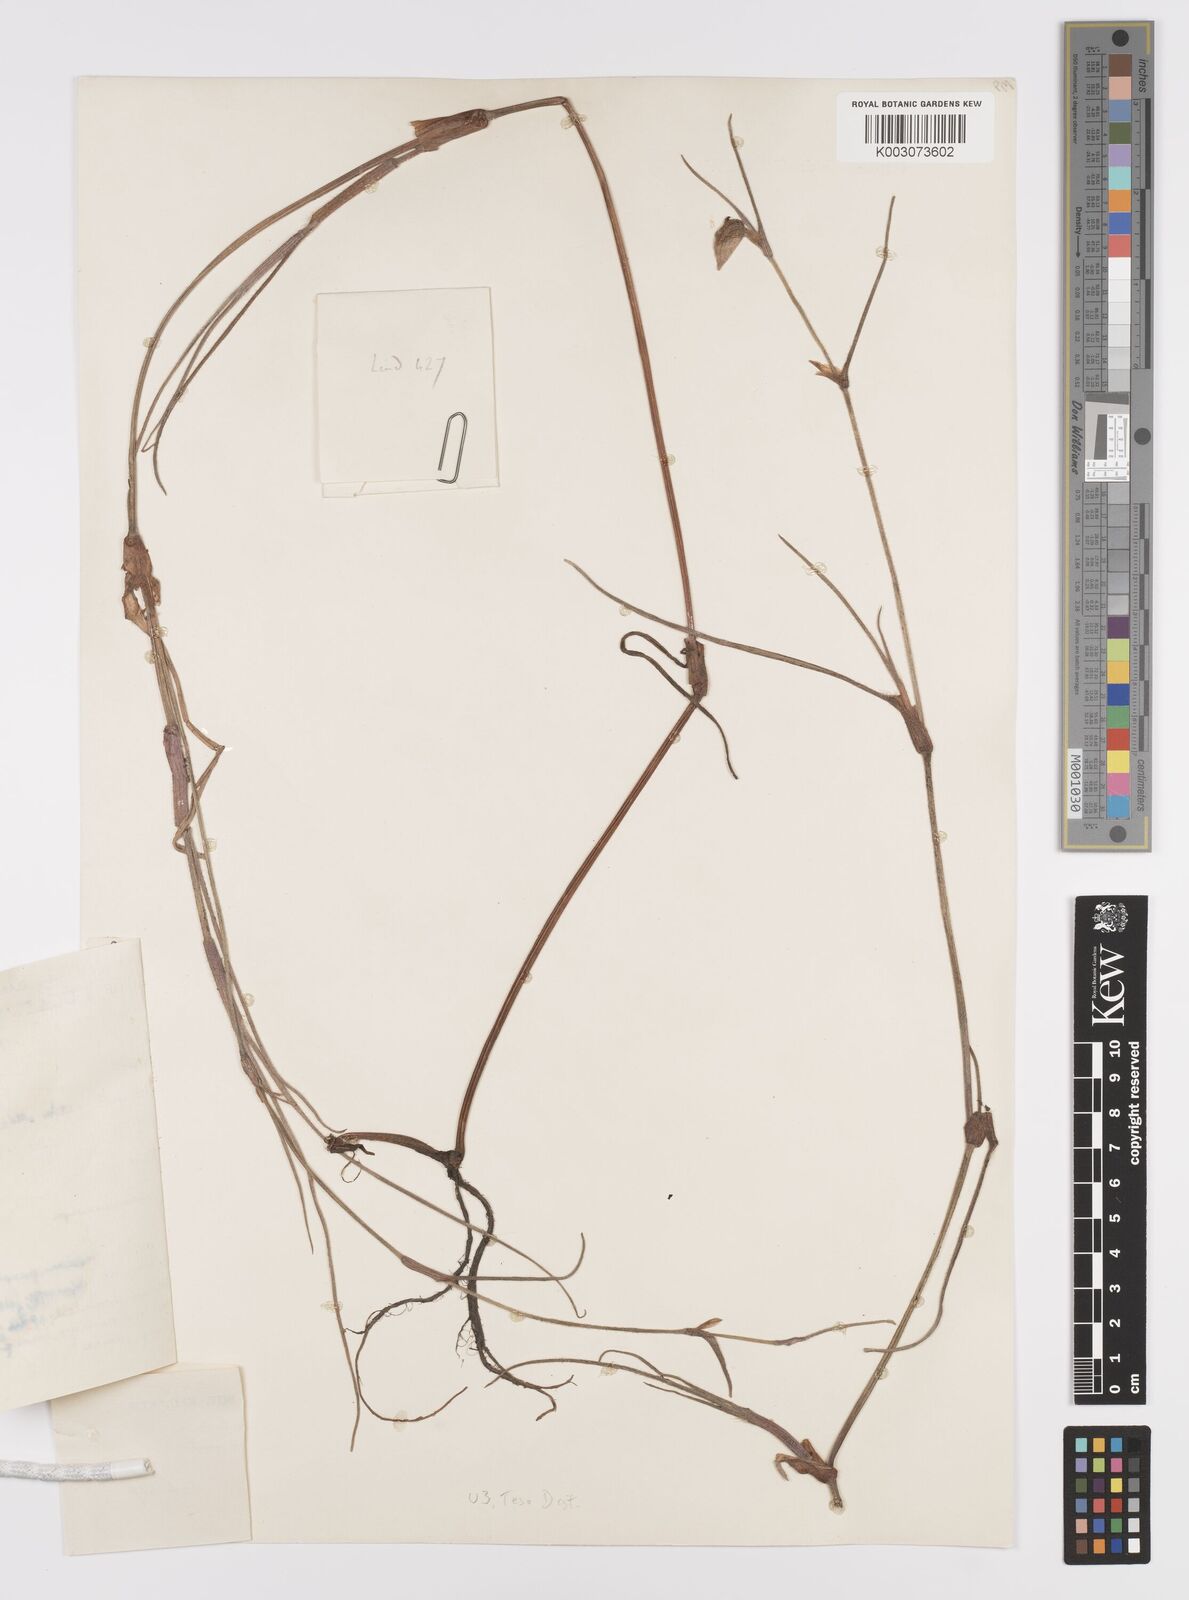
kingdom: Plantae
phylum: Tracheophyta
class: Liliopsida
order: Commelinales
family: Commelinaceae
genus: Commelina
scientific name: Commelina purpurea
